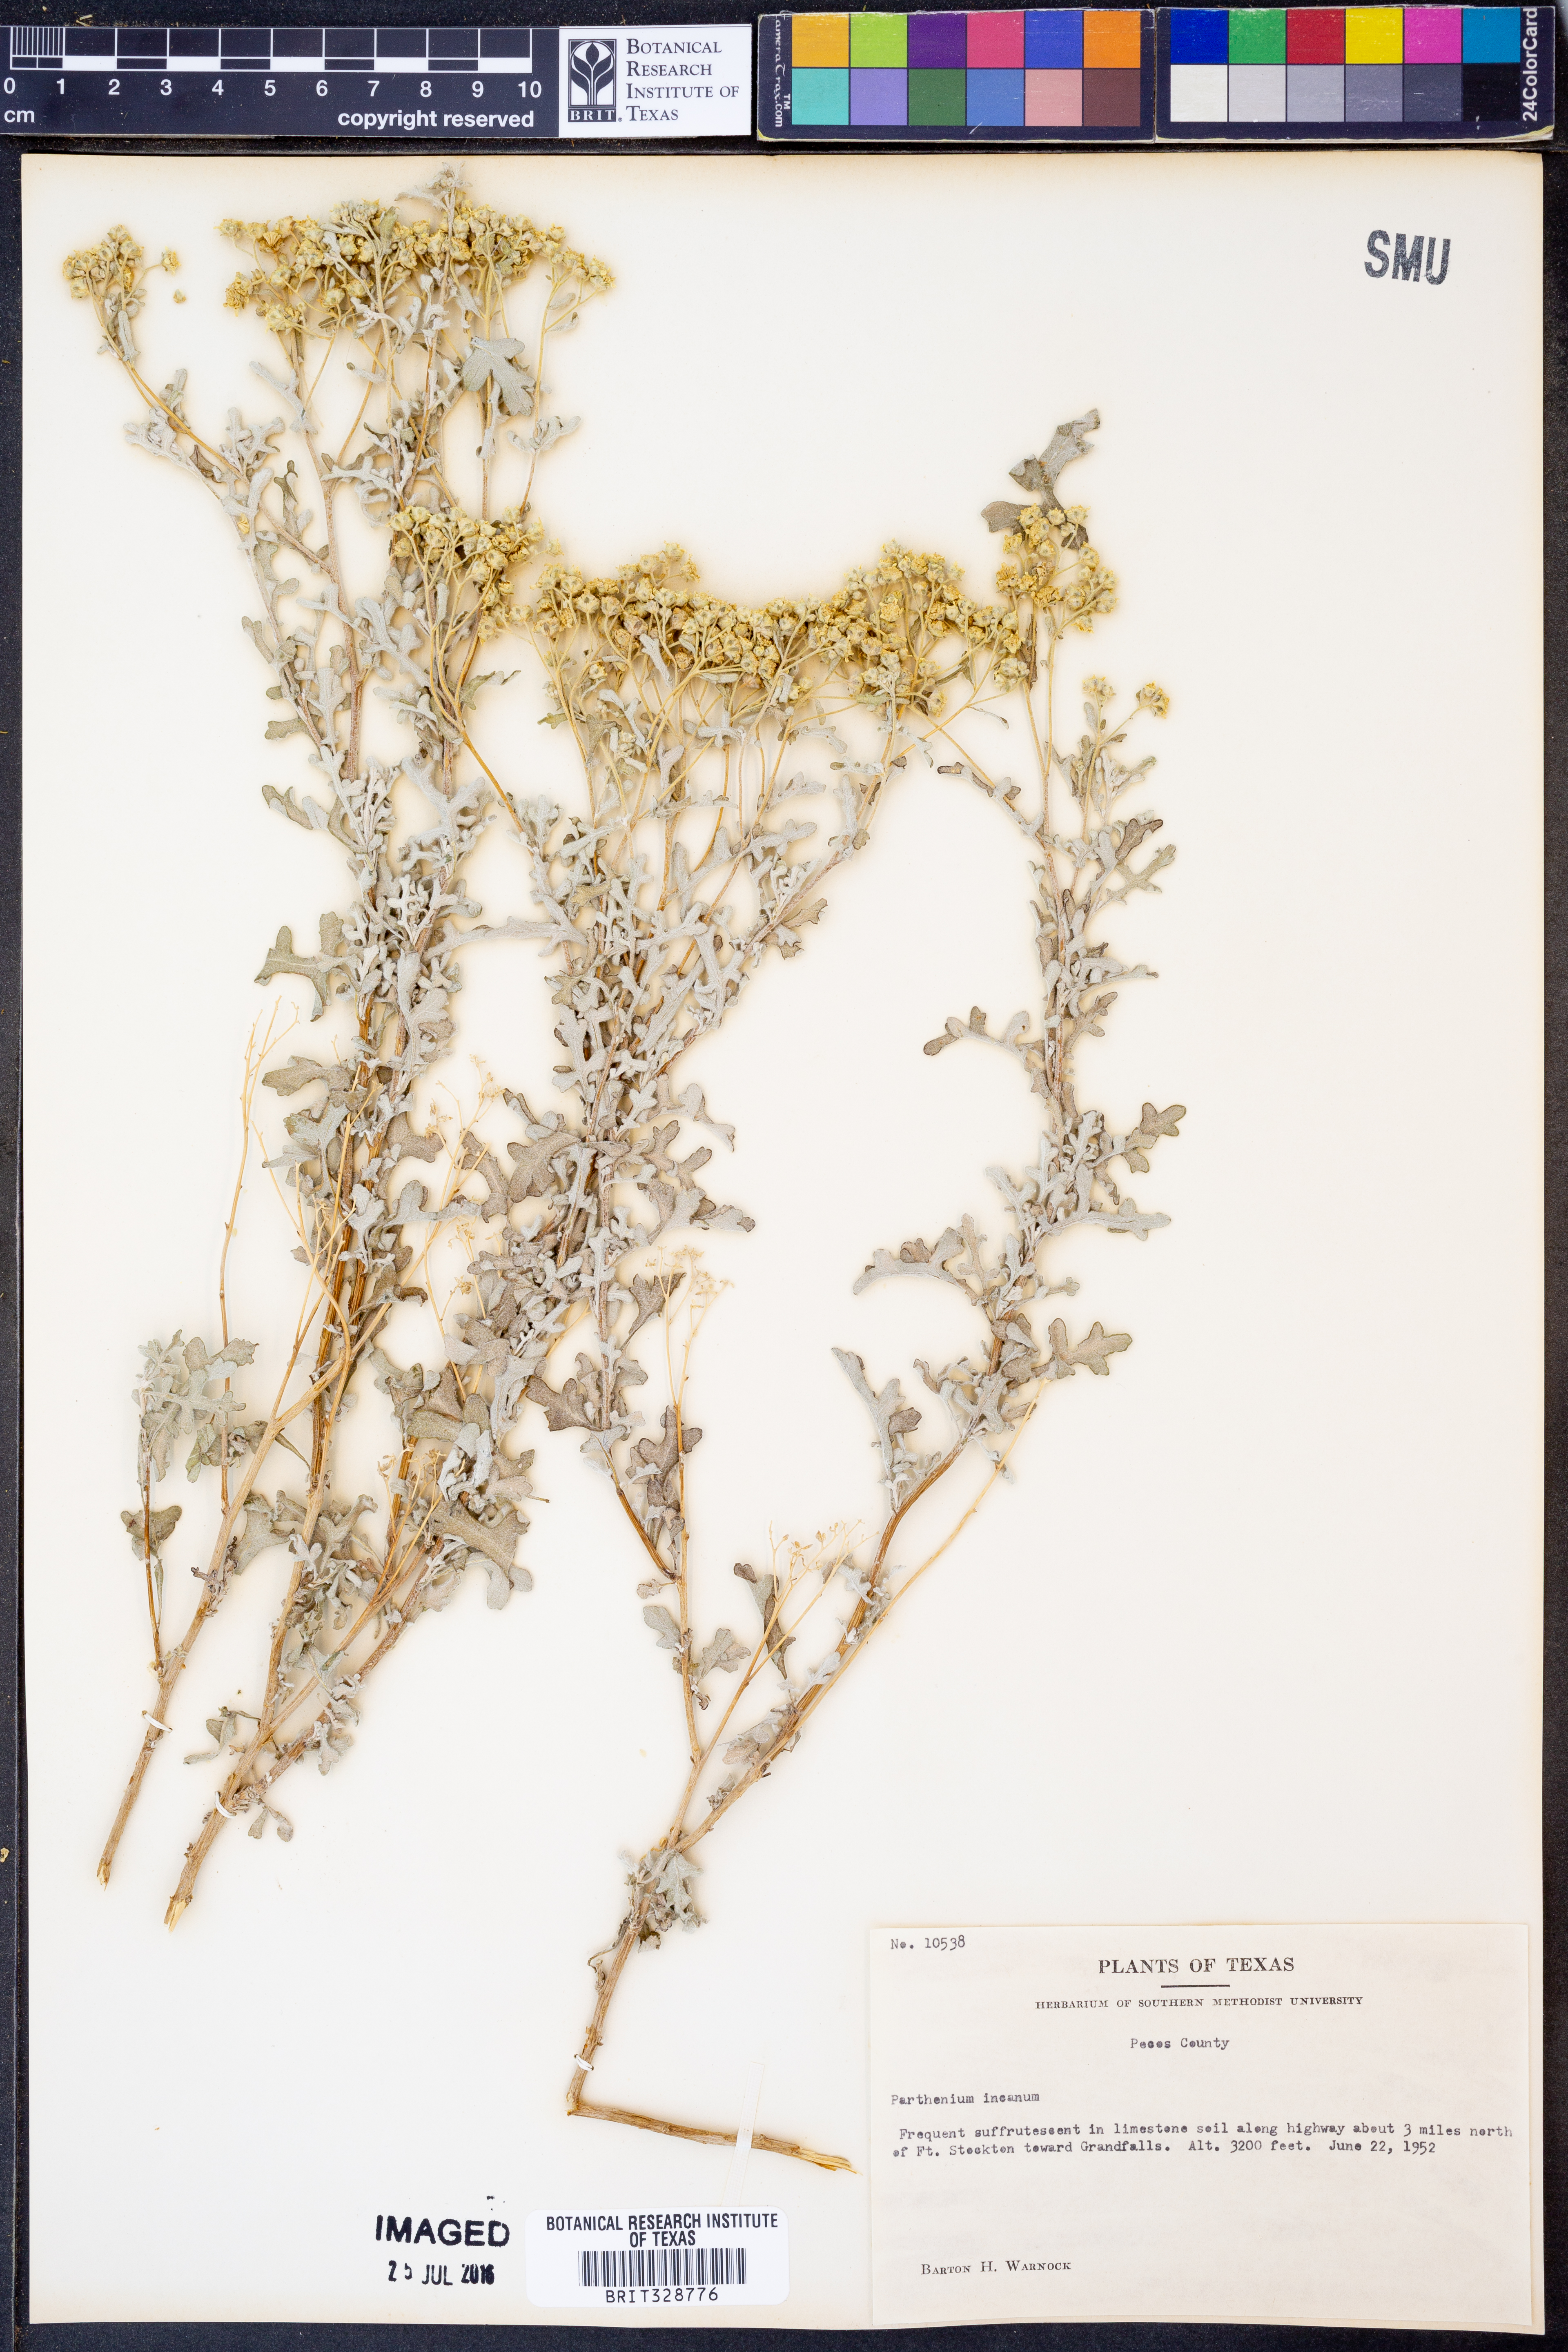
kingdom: Plantae
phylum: Tracheophyta
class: Magnoliopsida
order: Asterales
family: Asteraceae
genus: Parthenium
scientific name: Parthenium incanum
